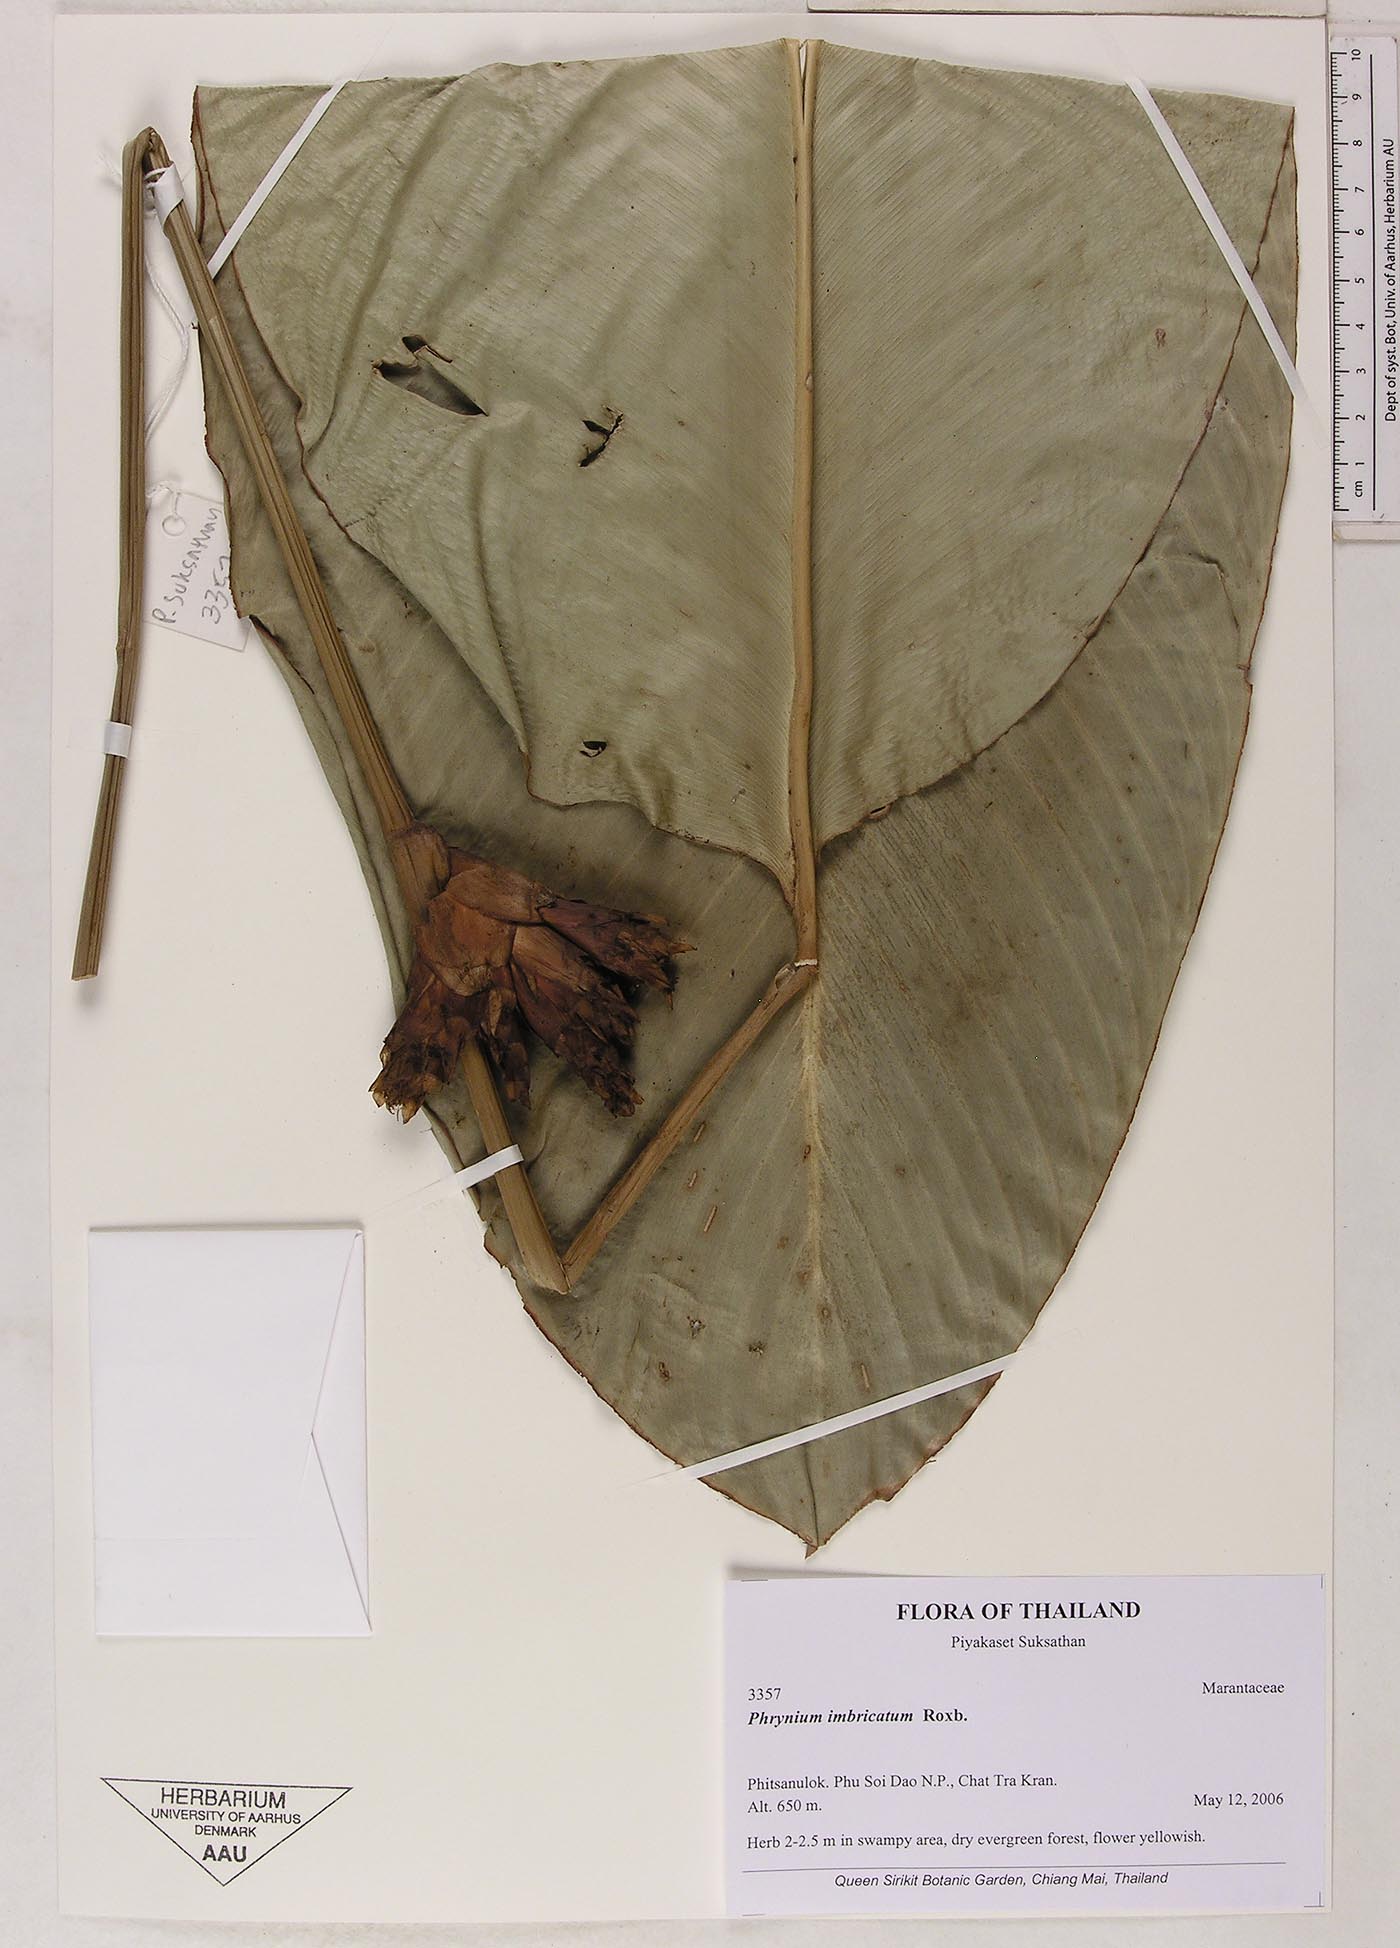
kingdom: Plantae
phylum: Tracheophyta
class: Liliopsida
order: Zingiberales
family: Marantaceae
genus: Phrynium
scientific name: Phrynium imbricatum
